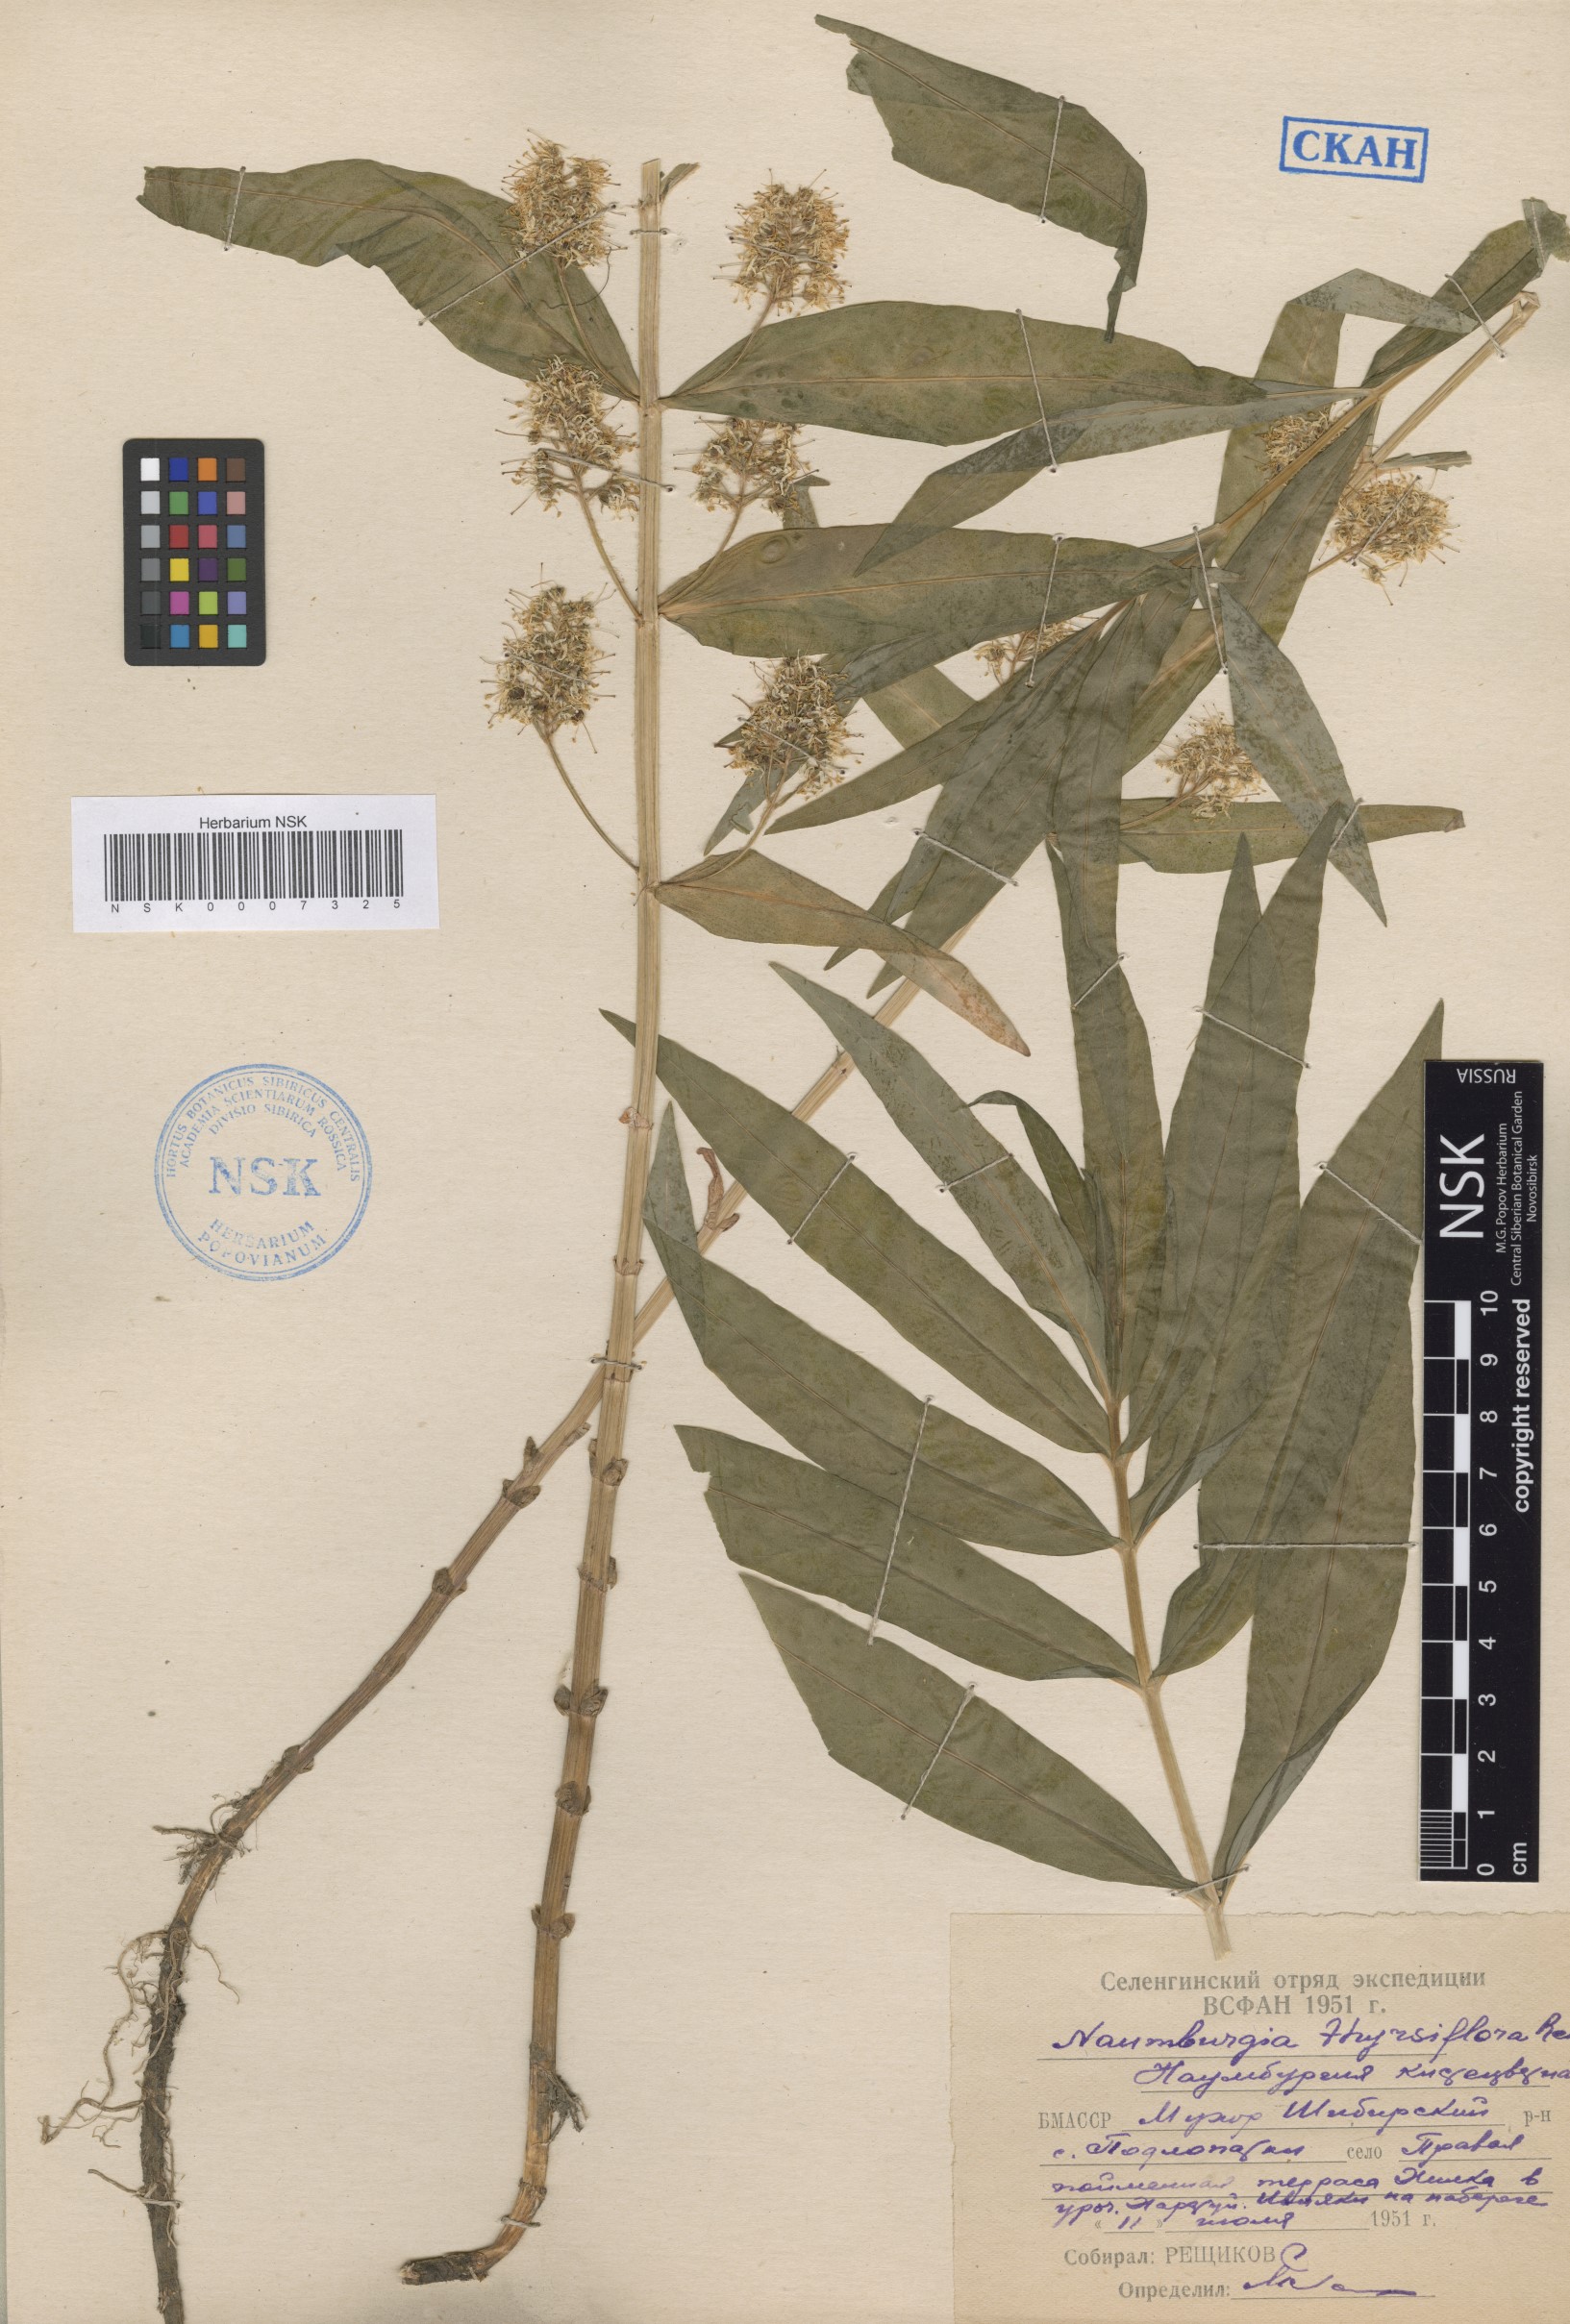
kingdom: Plantae
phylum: Tracheophyta
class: Magnoliopsida
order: Ericales
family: Primulaceae
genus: Lysimachia
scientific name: Lysimachia thyrsiflora
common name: Tufted loosestrife
